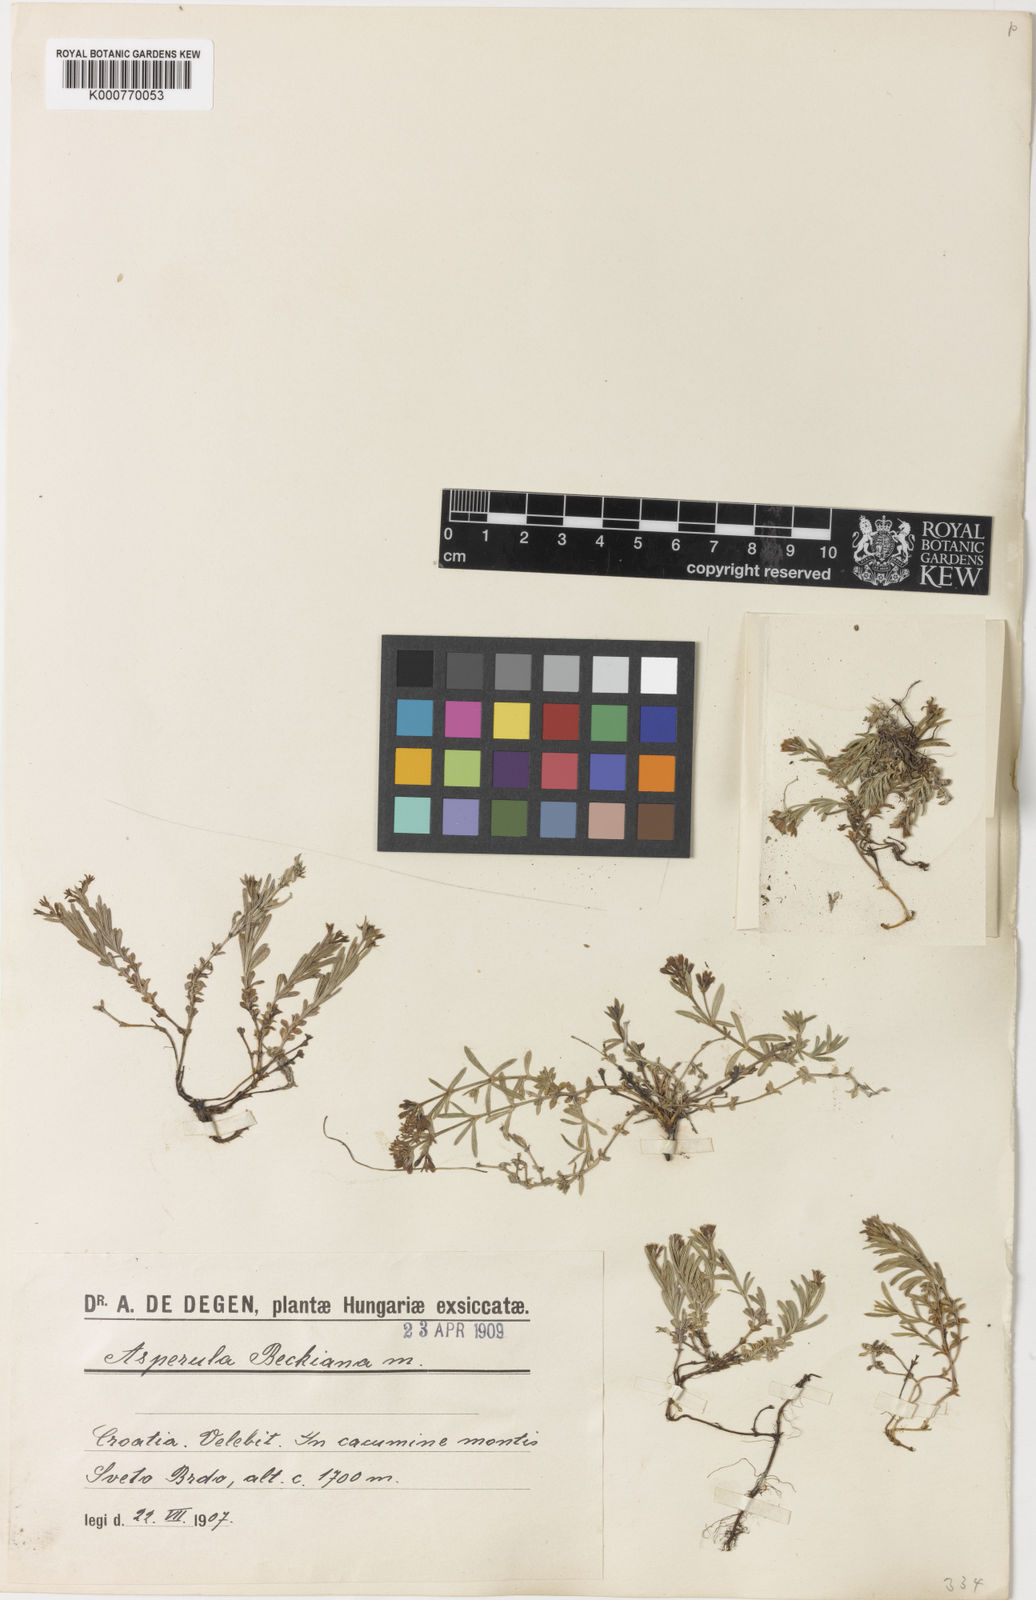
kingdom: Plantae
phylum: Tracheophyta
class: Magnoliopsida
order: Gentianales
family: Rubiaceae
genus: Cynanchica
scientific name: Cynanchica beckiana
